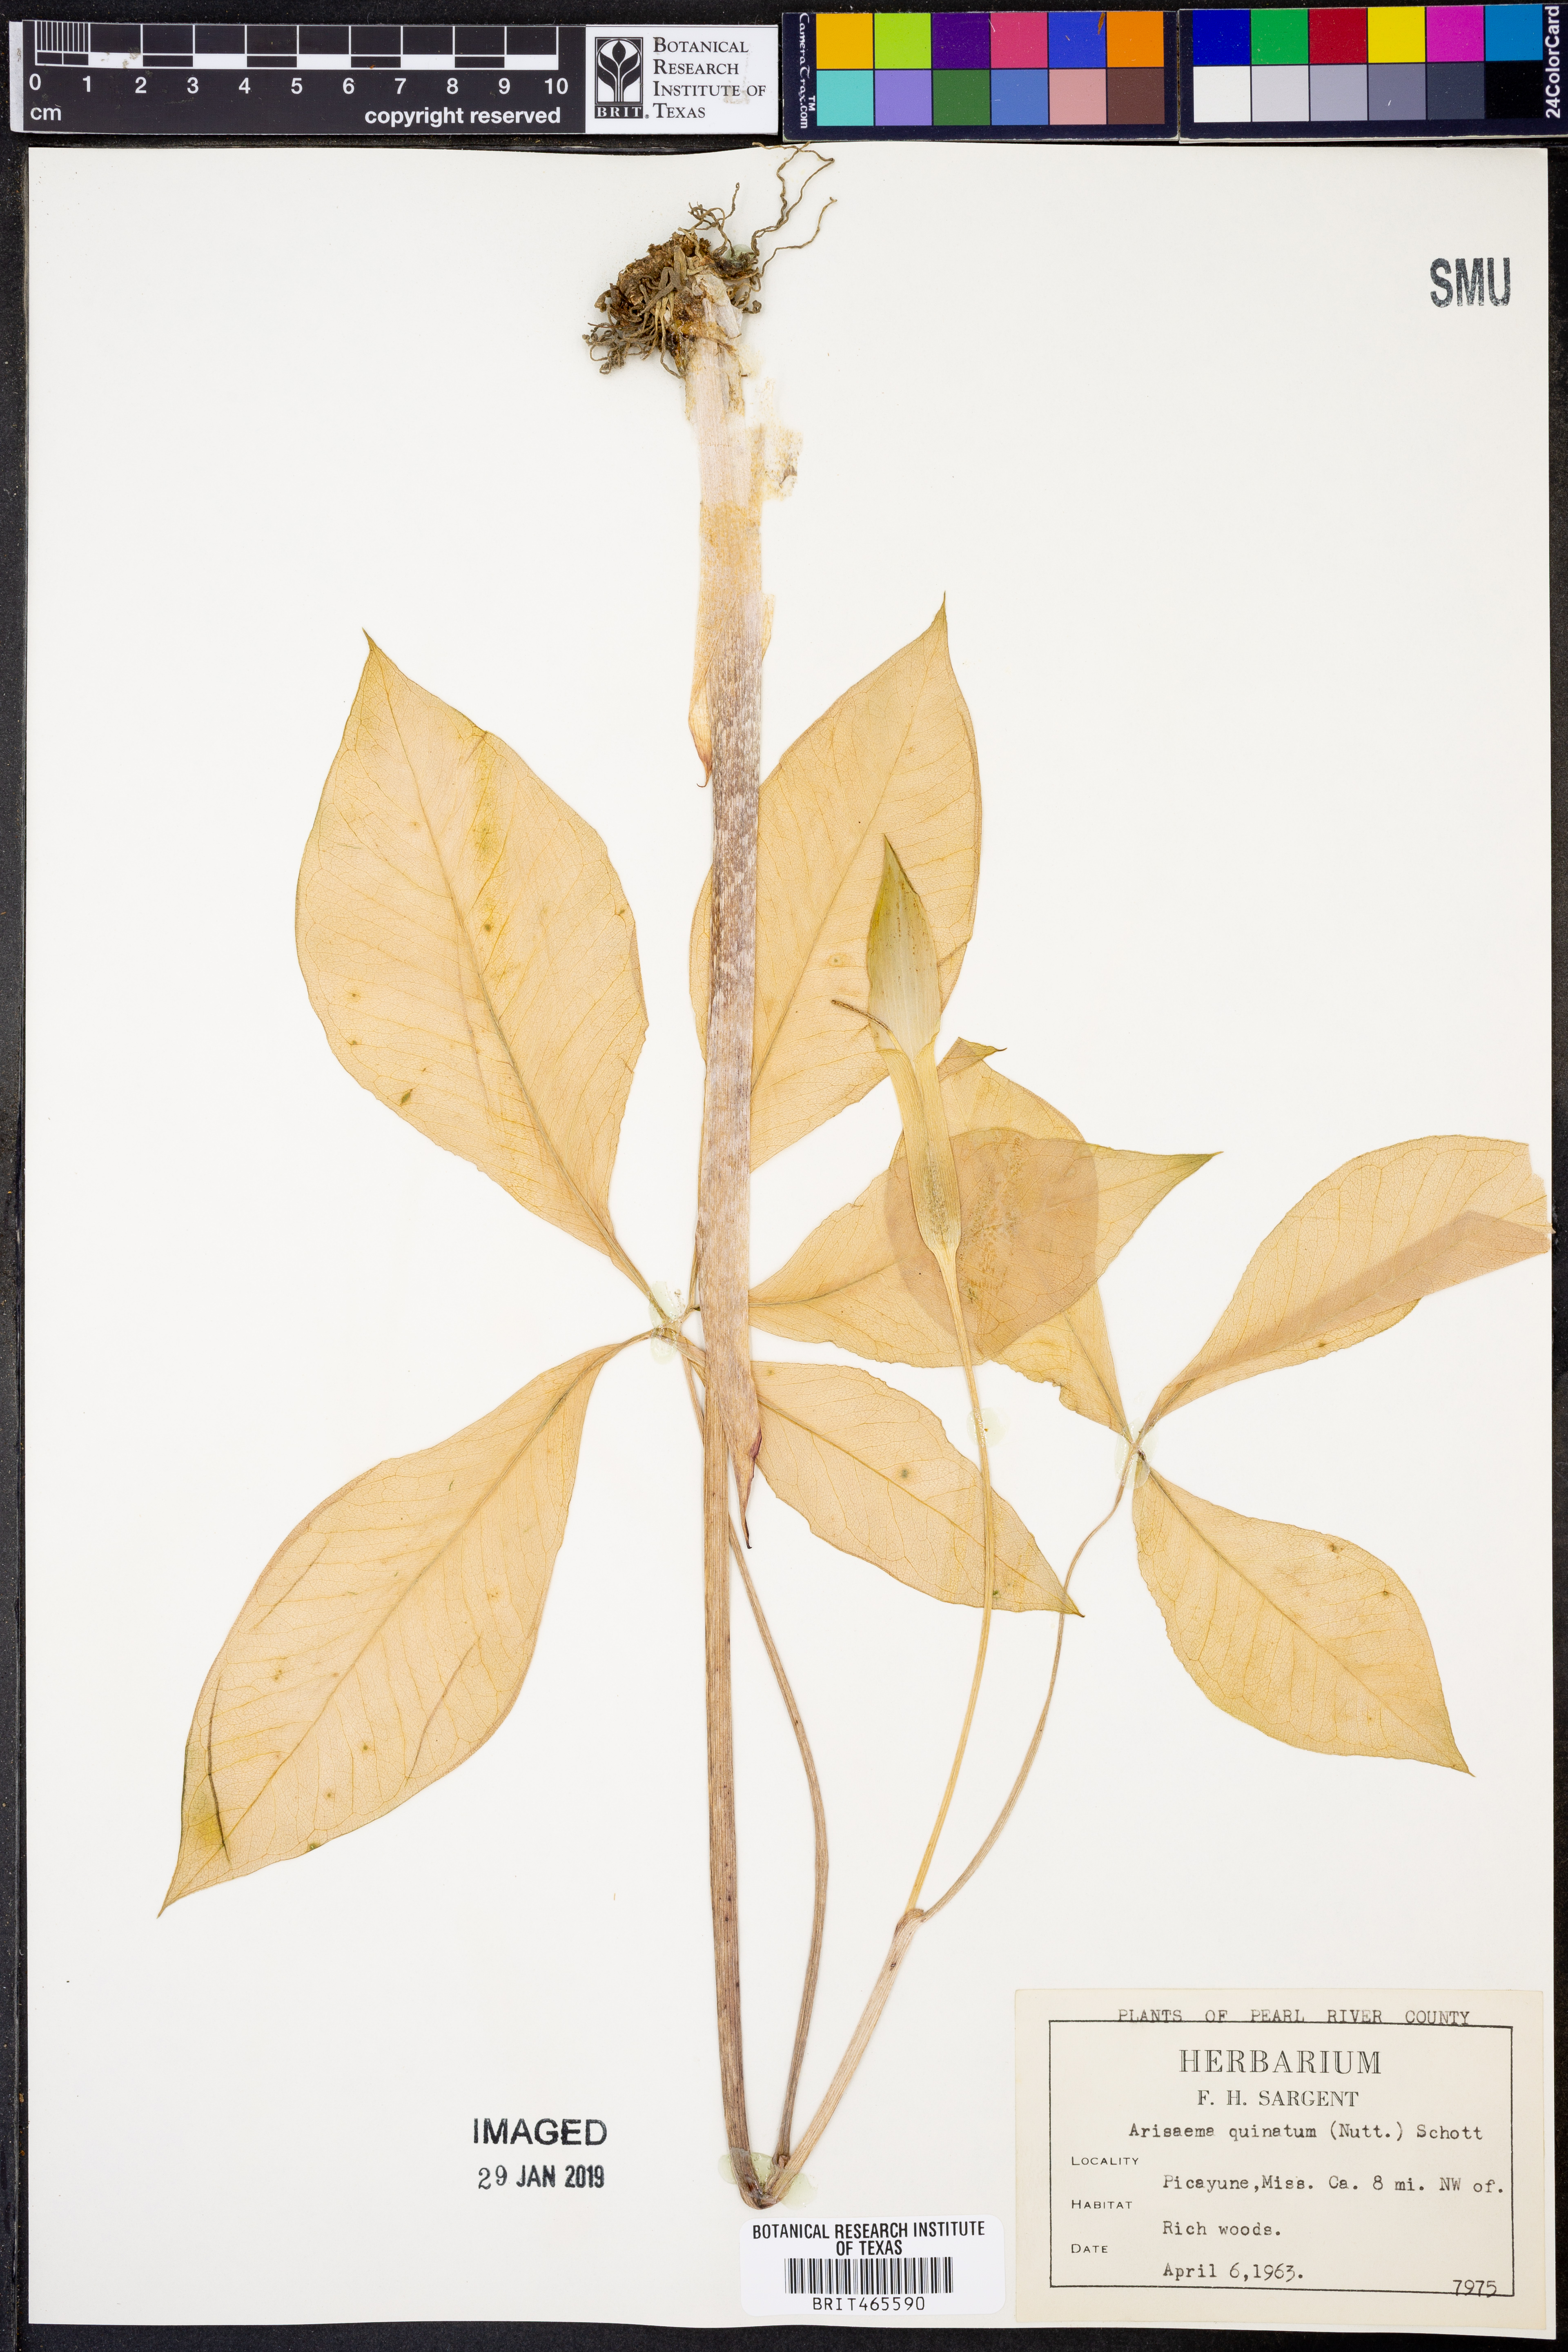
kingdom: Plantae
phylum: Tracheophyta
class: Liliopsida
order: Alismatales
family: Araceae
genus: Arisaema
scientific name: Arisaema quinatum
